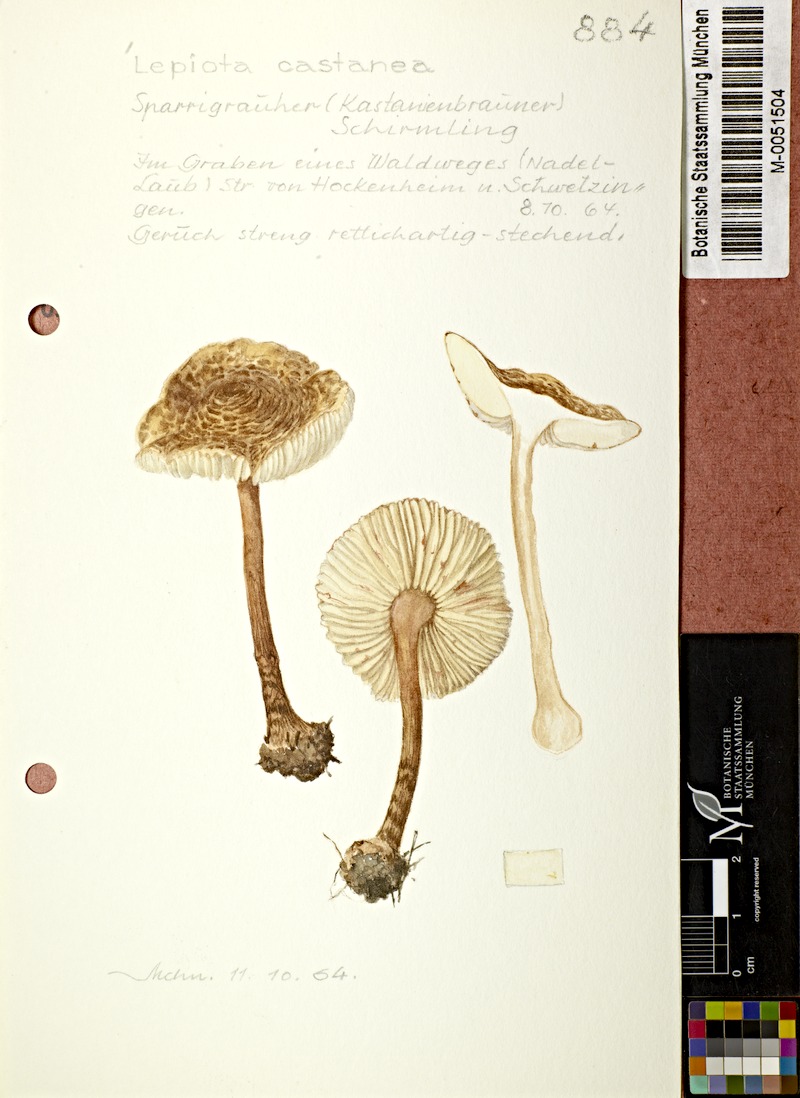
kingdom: Fungi
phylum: Basidiomycota
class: Agaricomycetes
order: Agaricales
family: Agaricaceae
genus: Lepiota
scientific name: Lepiota castanea
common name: Chestnut dapperling
